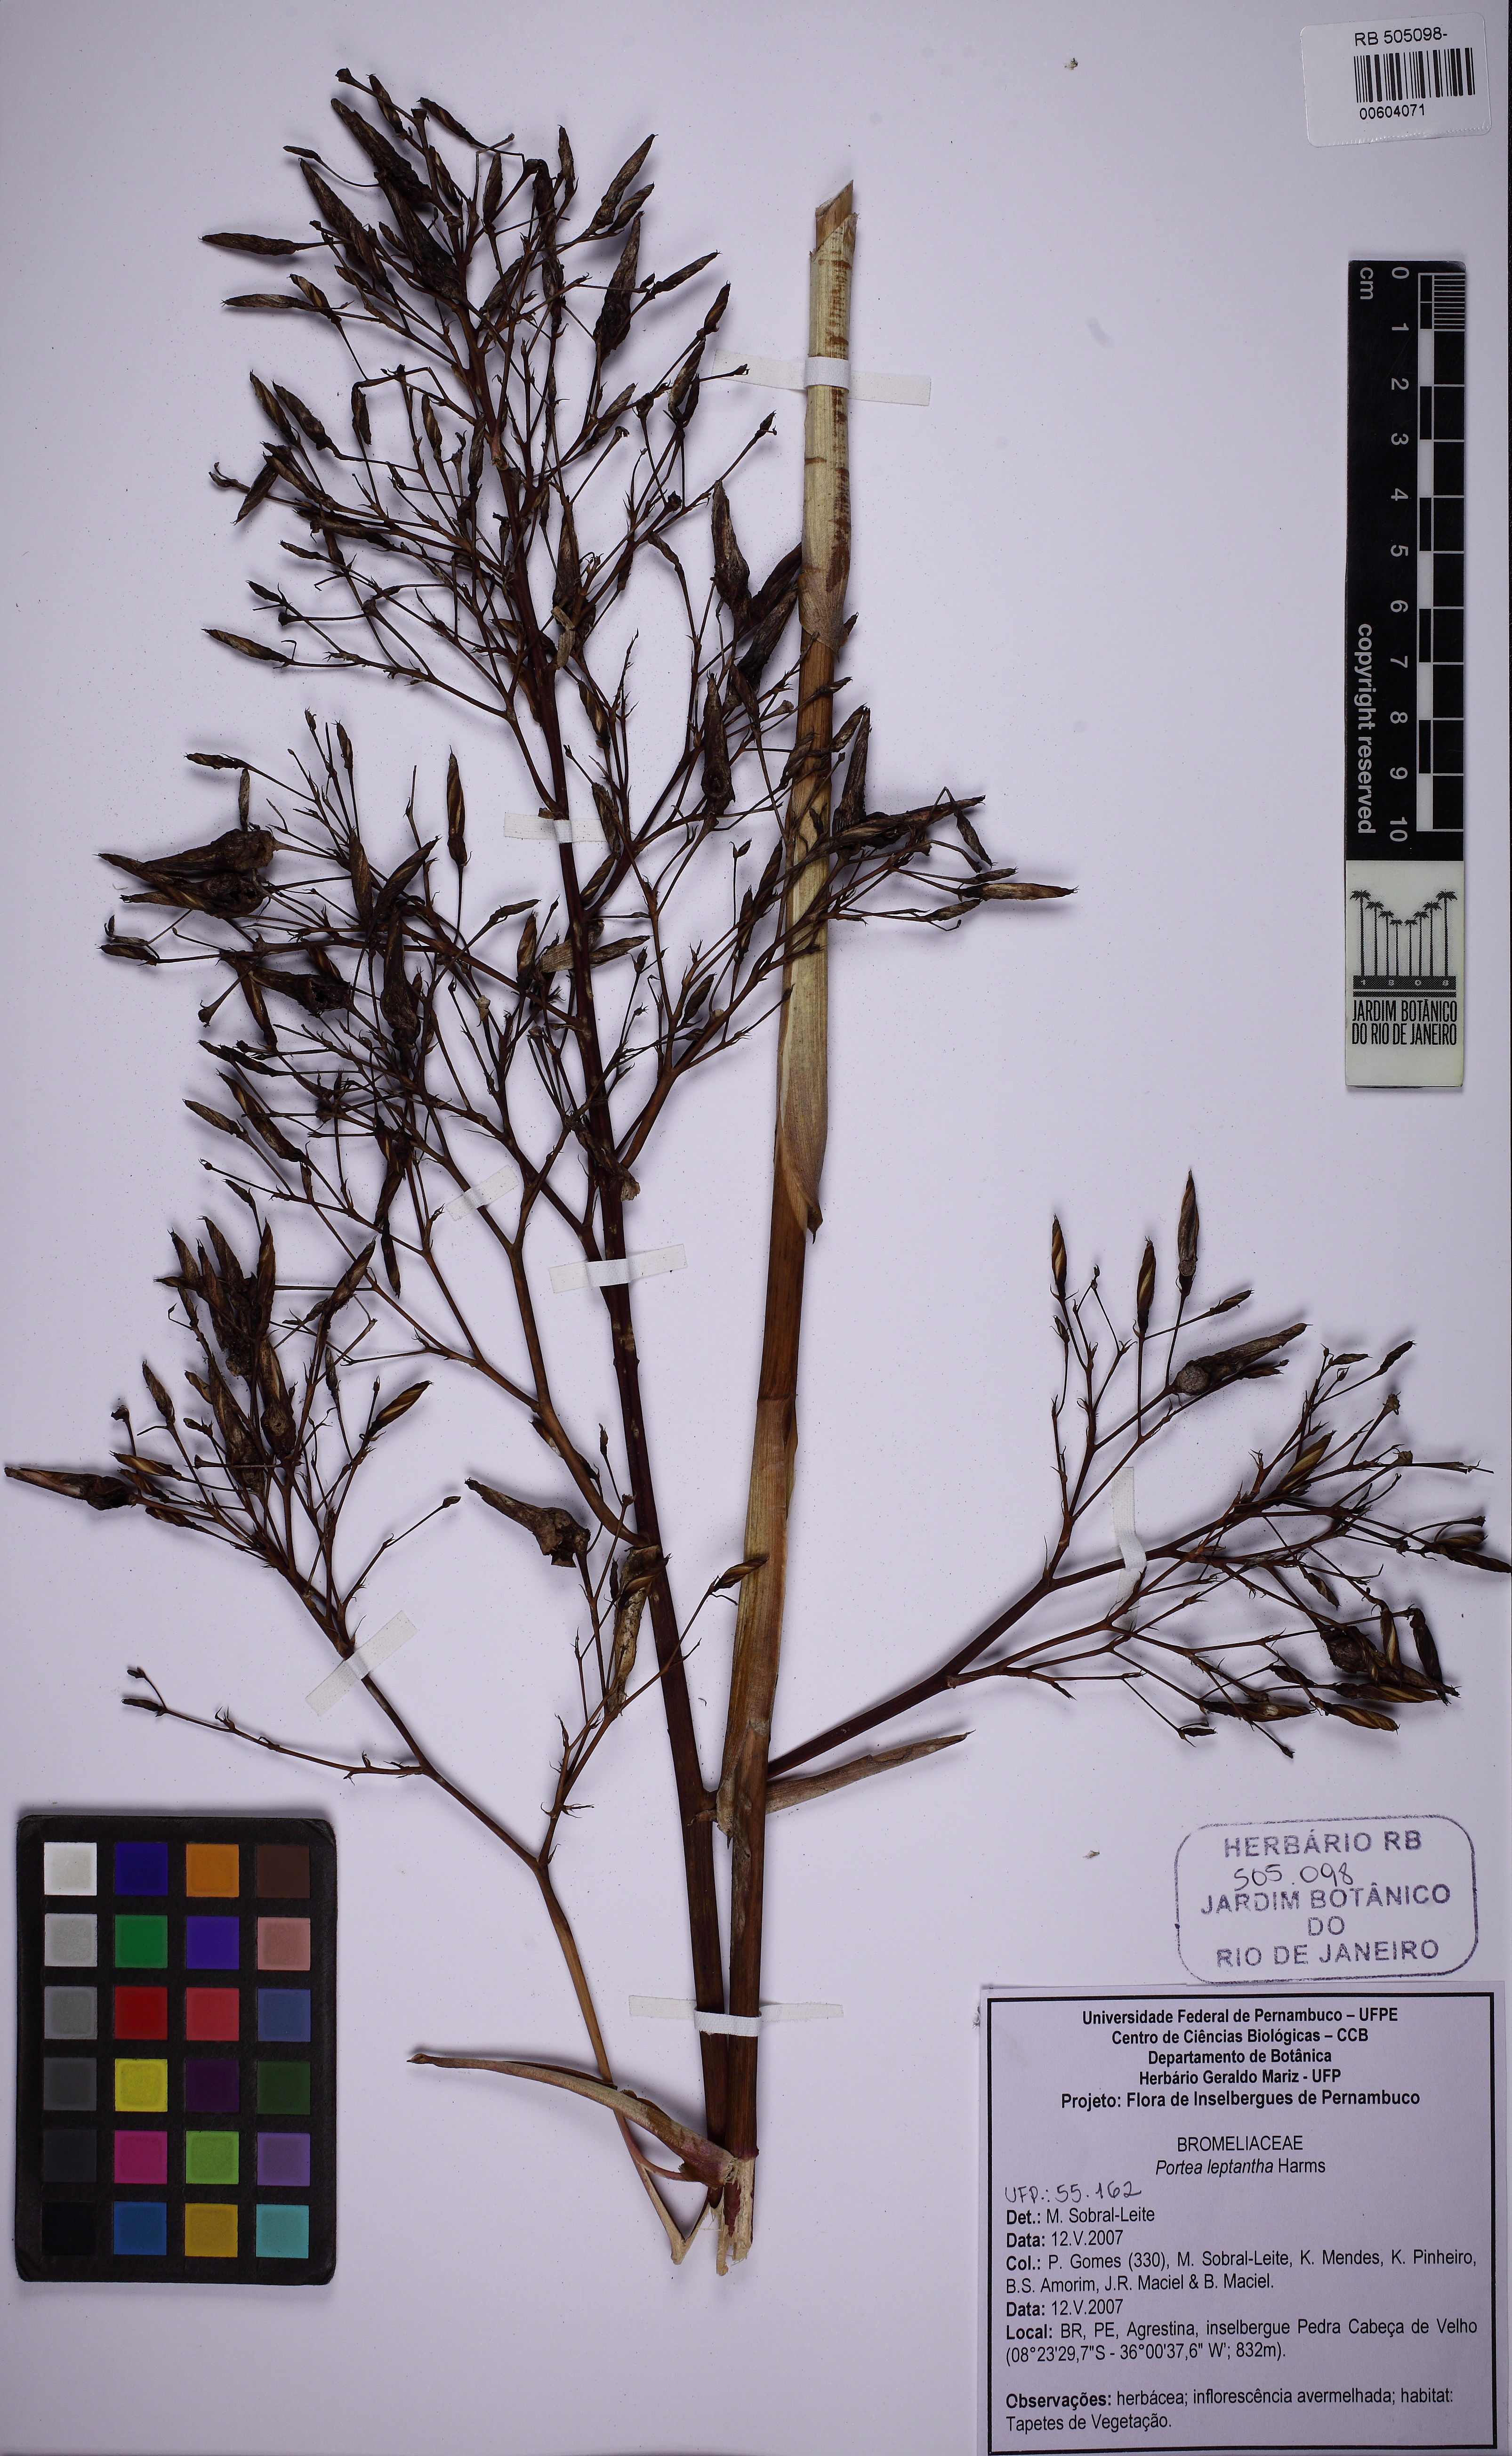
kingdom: Plantae
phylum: Tracheophyta
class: Liliopsida
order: Poales
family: Bromeliaceae
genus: Aechmea
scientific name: Aechmea leptantha
